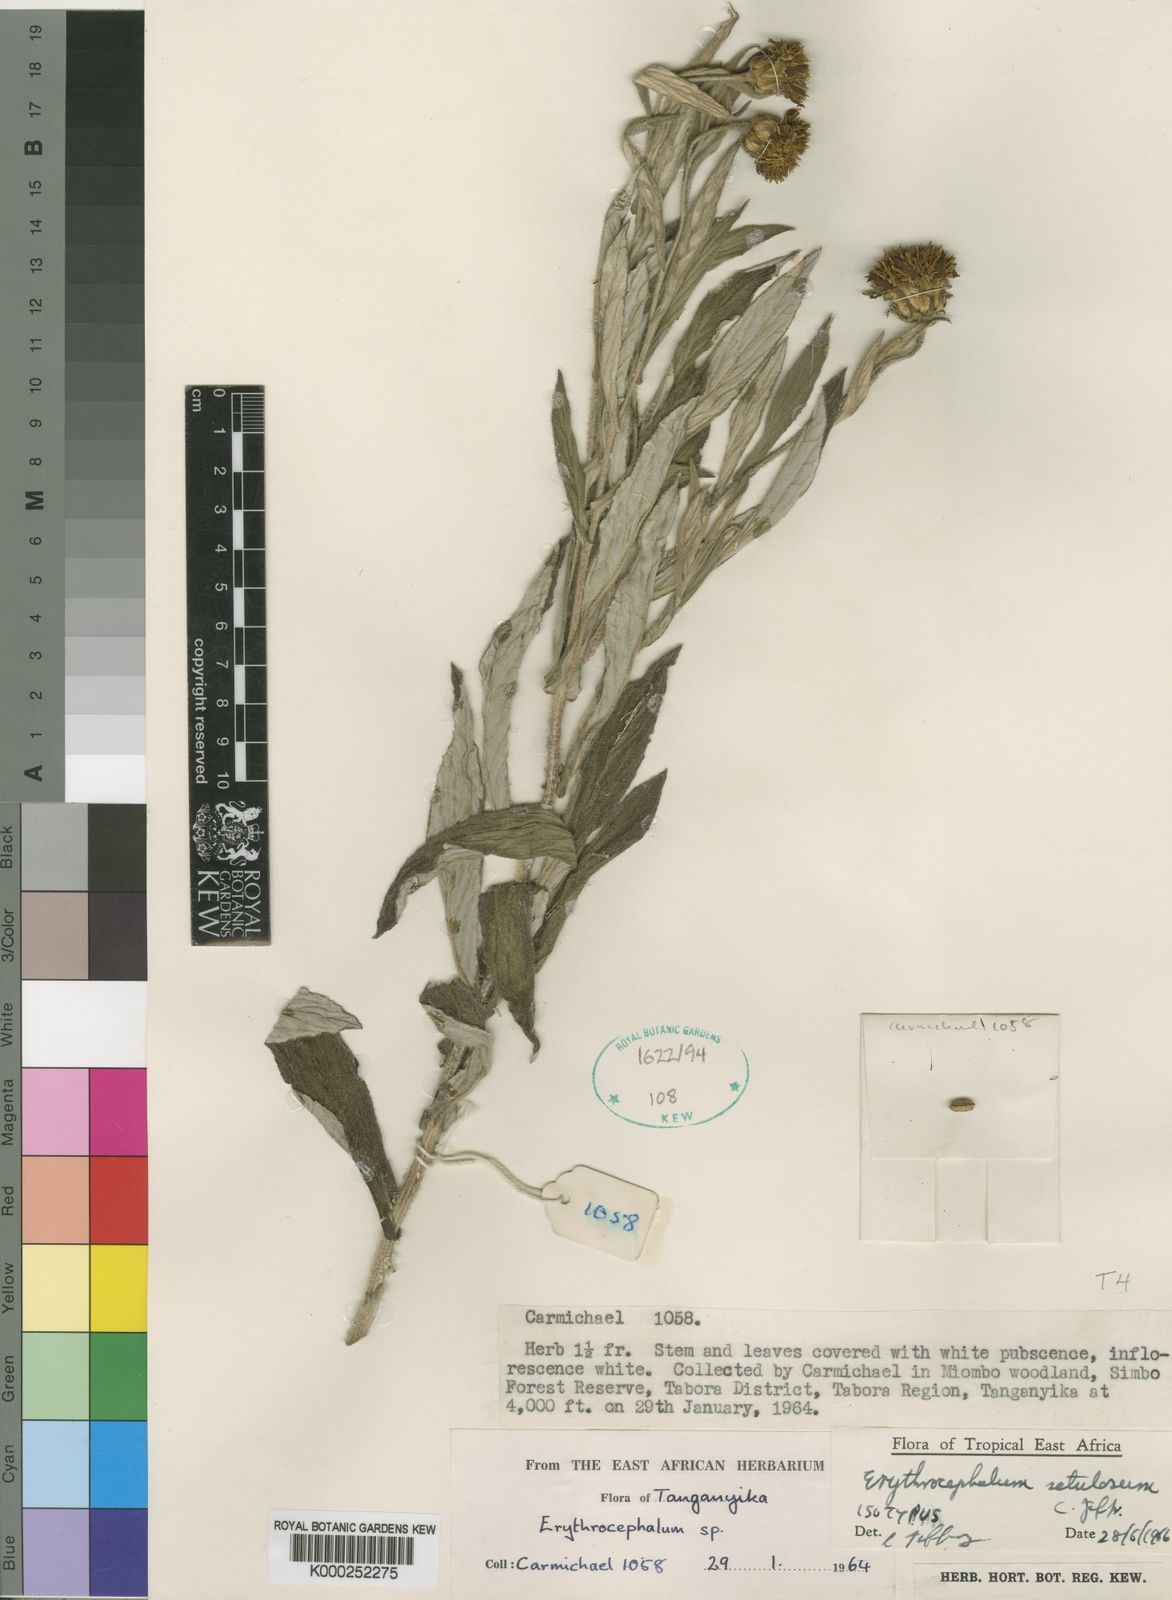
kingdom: Plantae
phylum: Tracheophyta
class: Magnoliopsida
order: Asterales
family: Asteraceae
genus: Erythrocephalum
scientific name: Erythrocephalum setulosum
